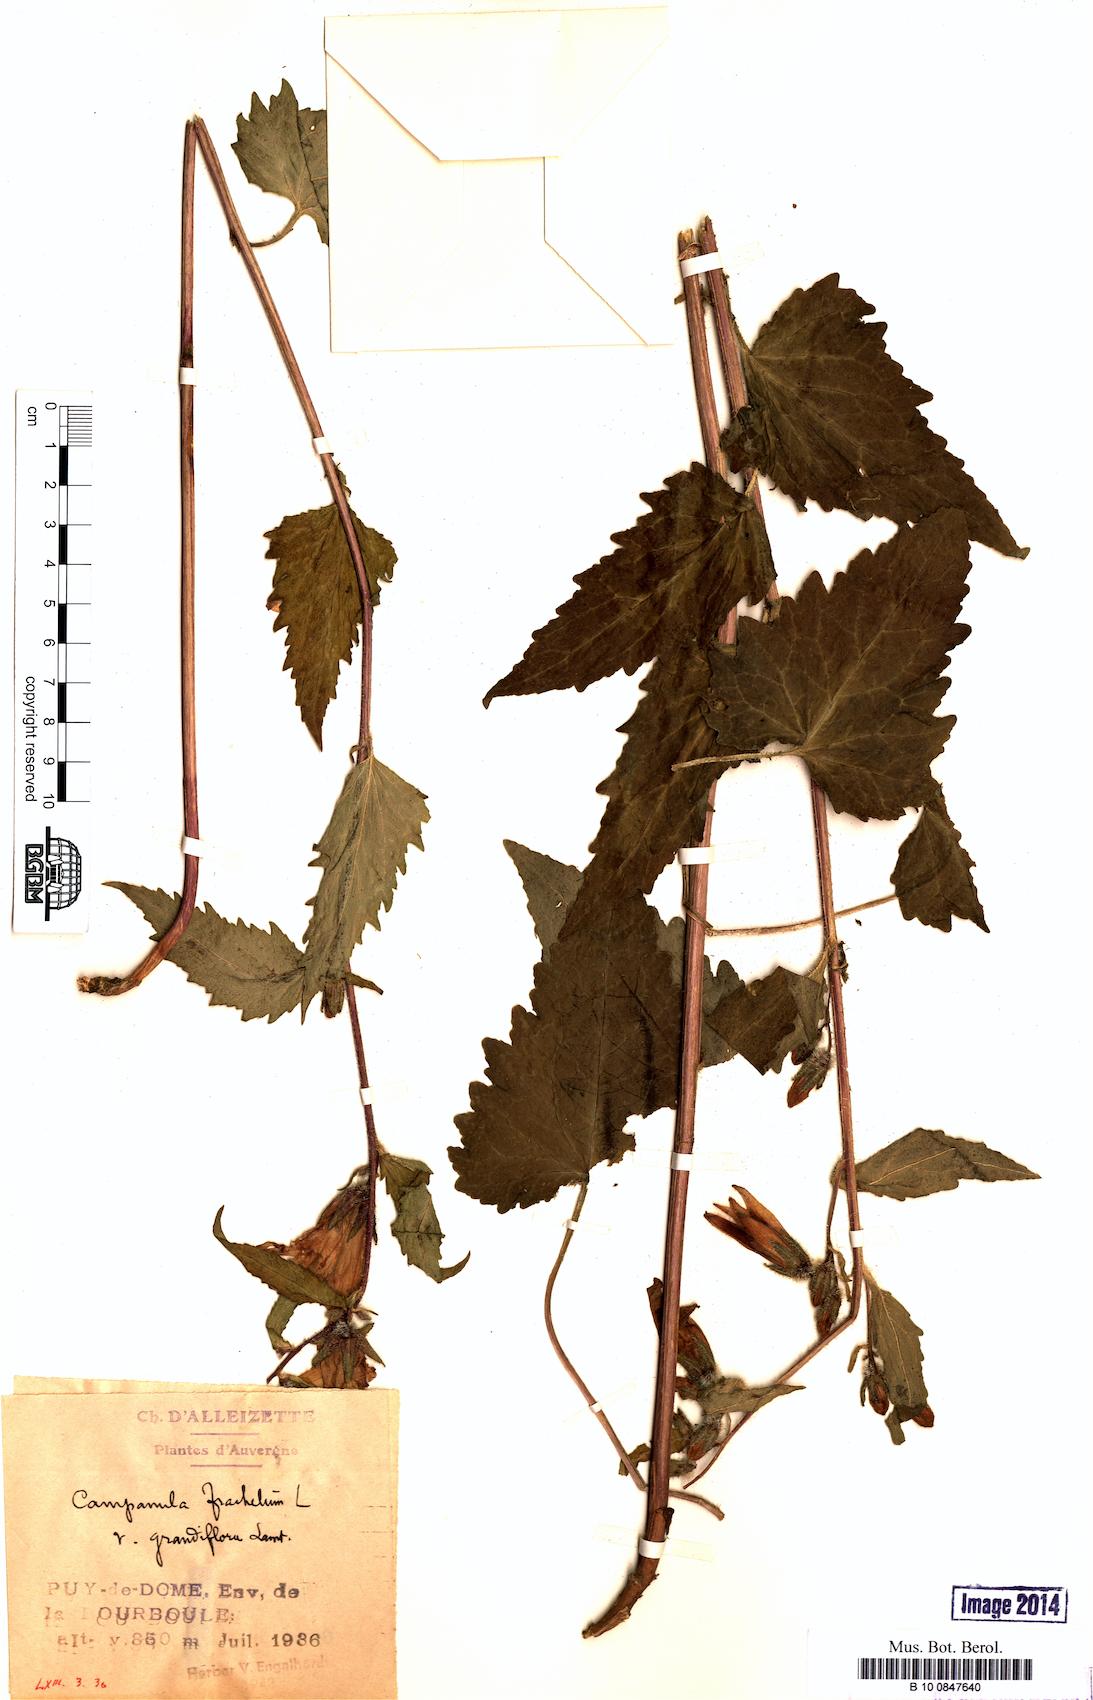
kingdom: Plantae
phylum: Tracheophyta
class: Magnoliopsida
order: Asterales
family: Campanulaceae
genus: Campanula
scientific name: Campanula trachelium
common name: Nettle-leaved bellflower
